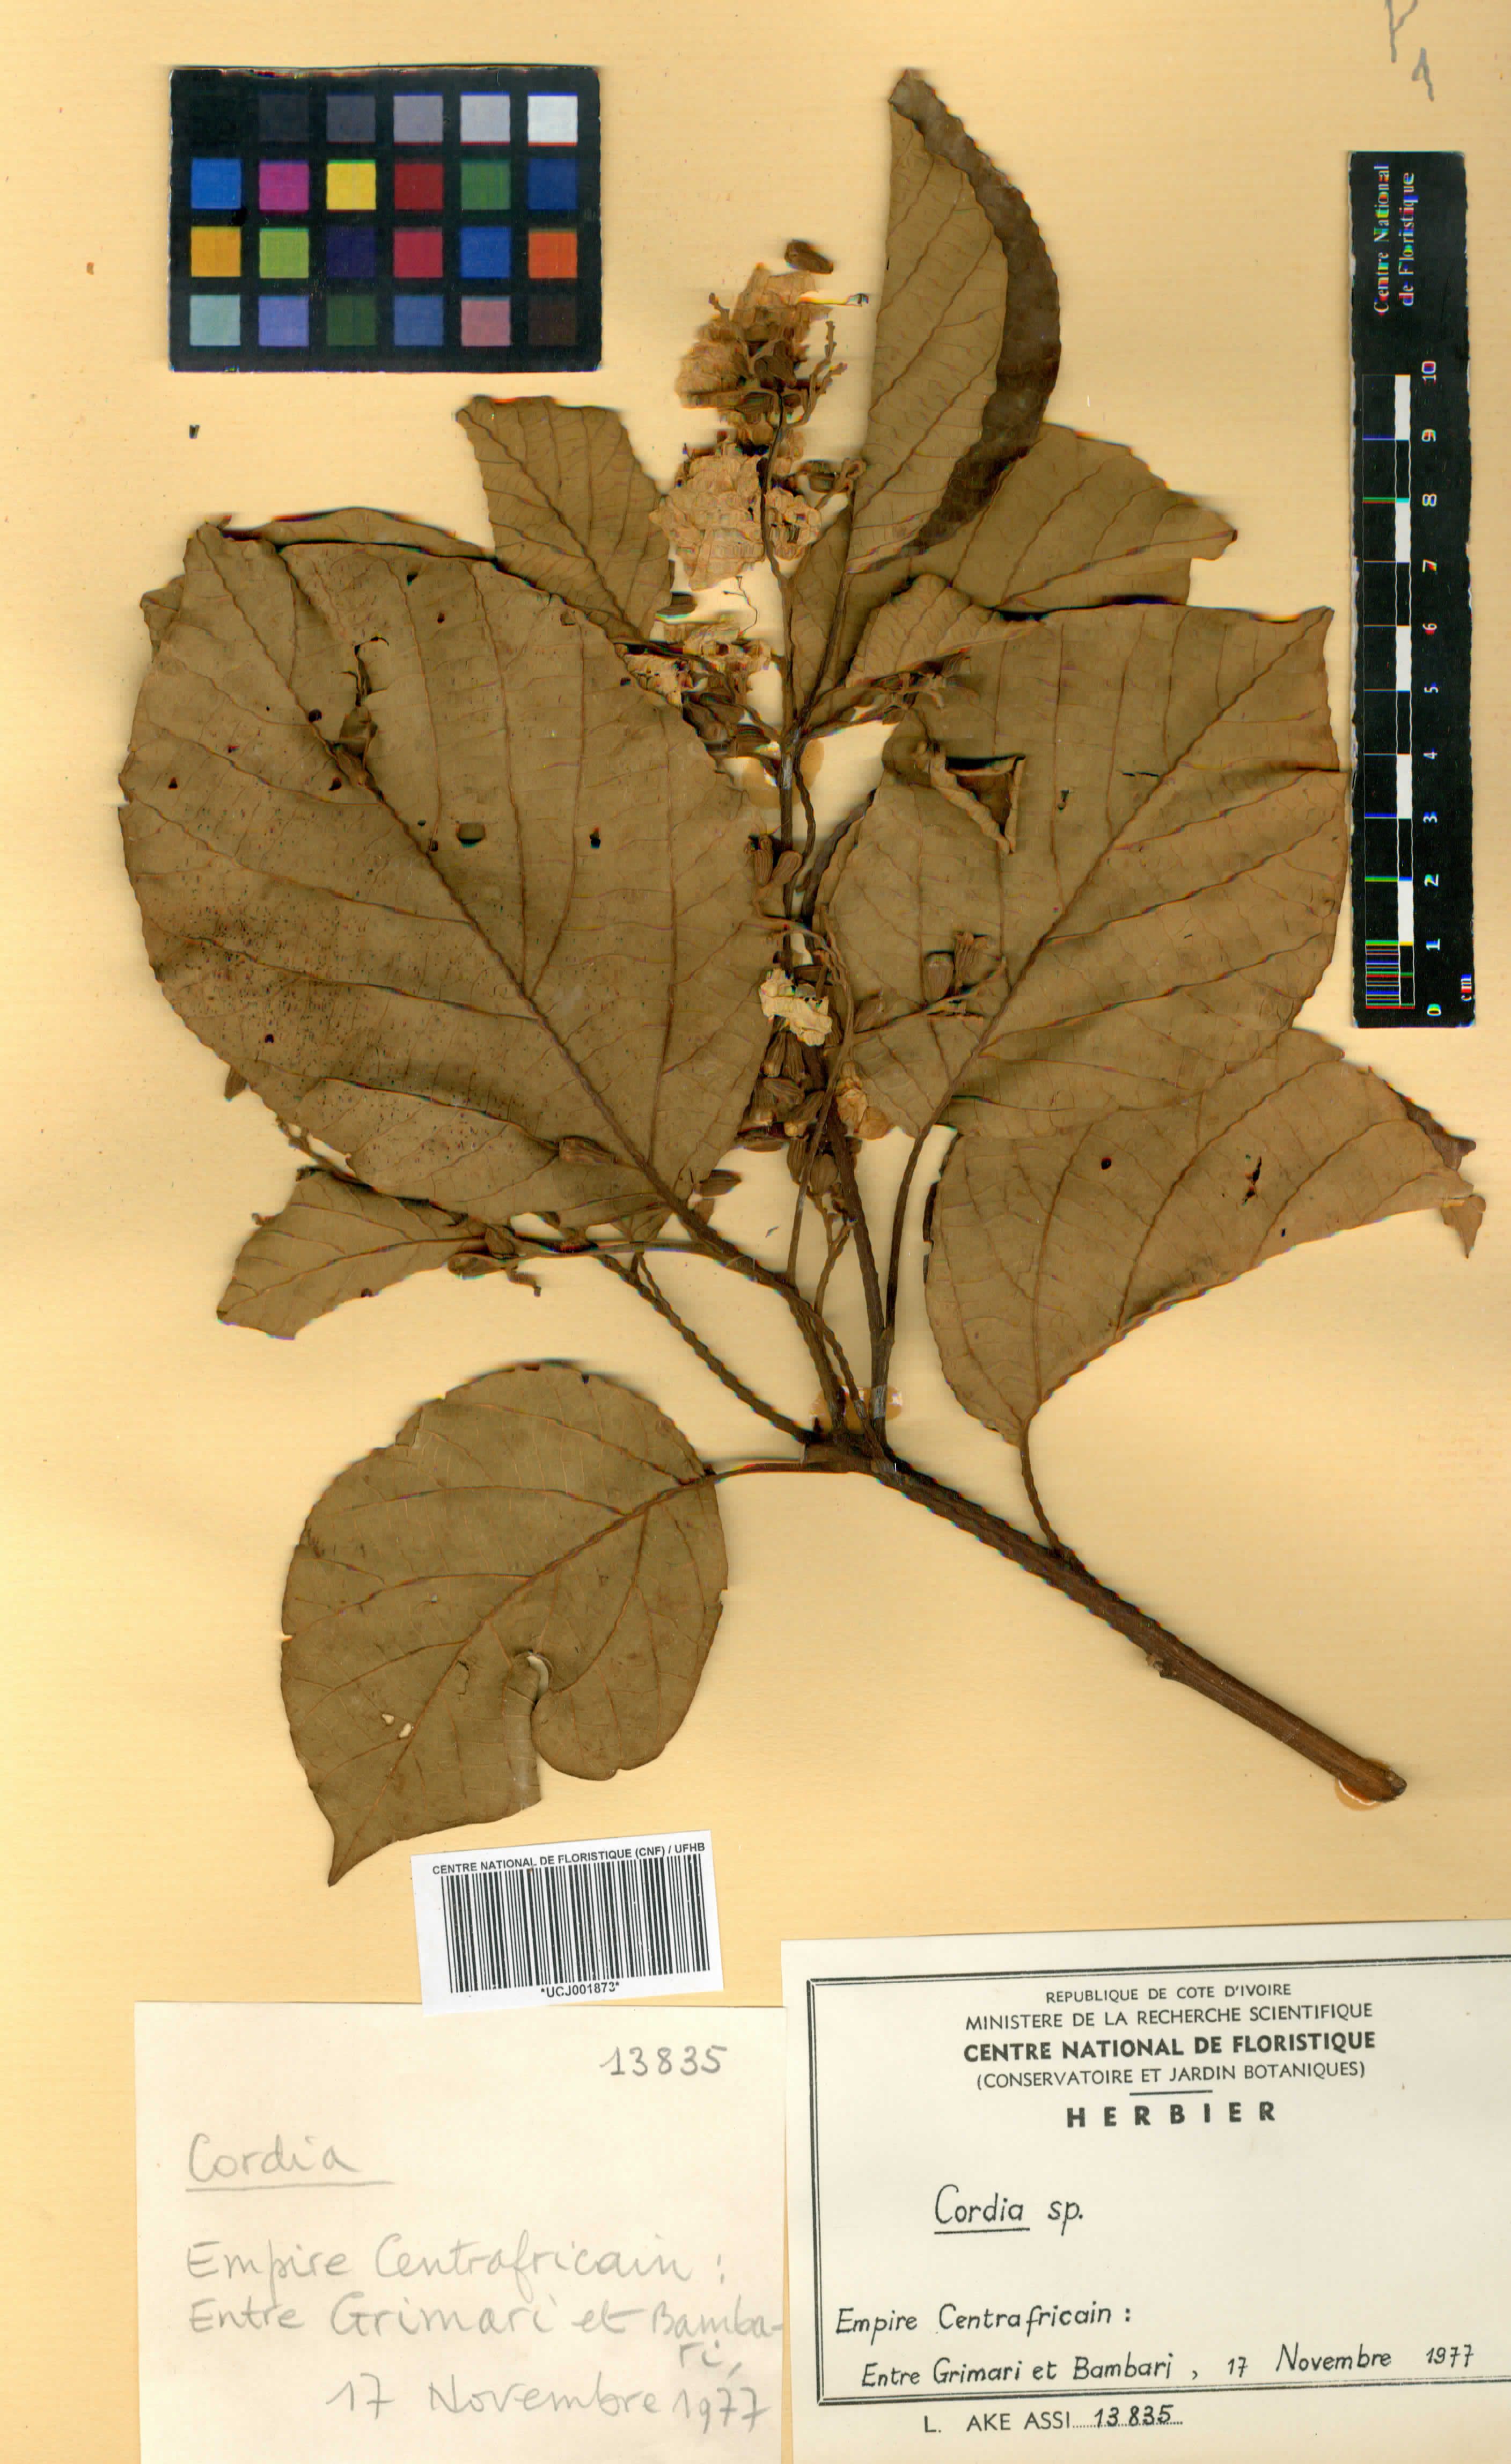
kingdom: Plantae
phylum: Tracheophyta
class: Magnoliopsida
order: Boraginales
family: Cordiaceae
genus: Cordia
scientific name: Cordia
